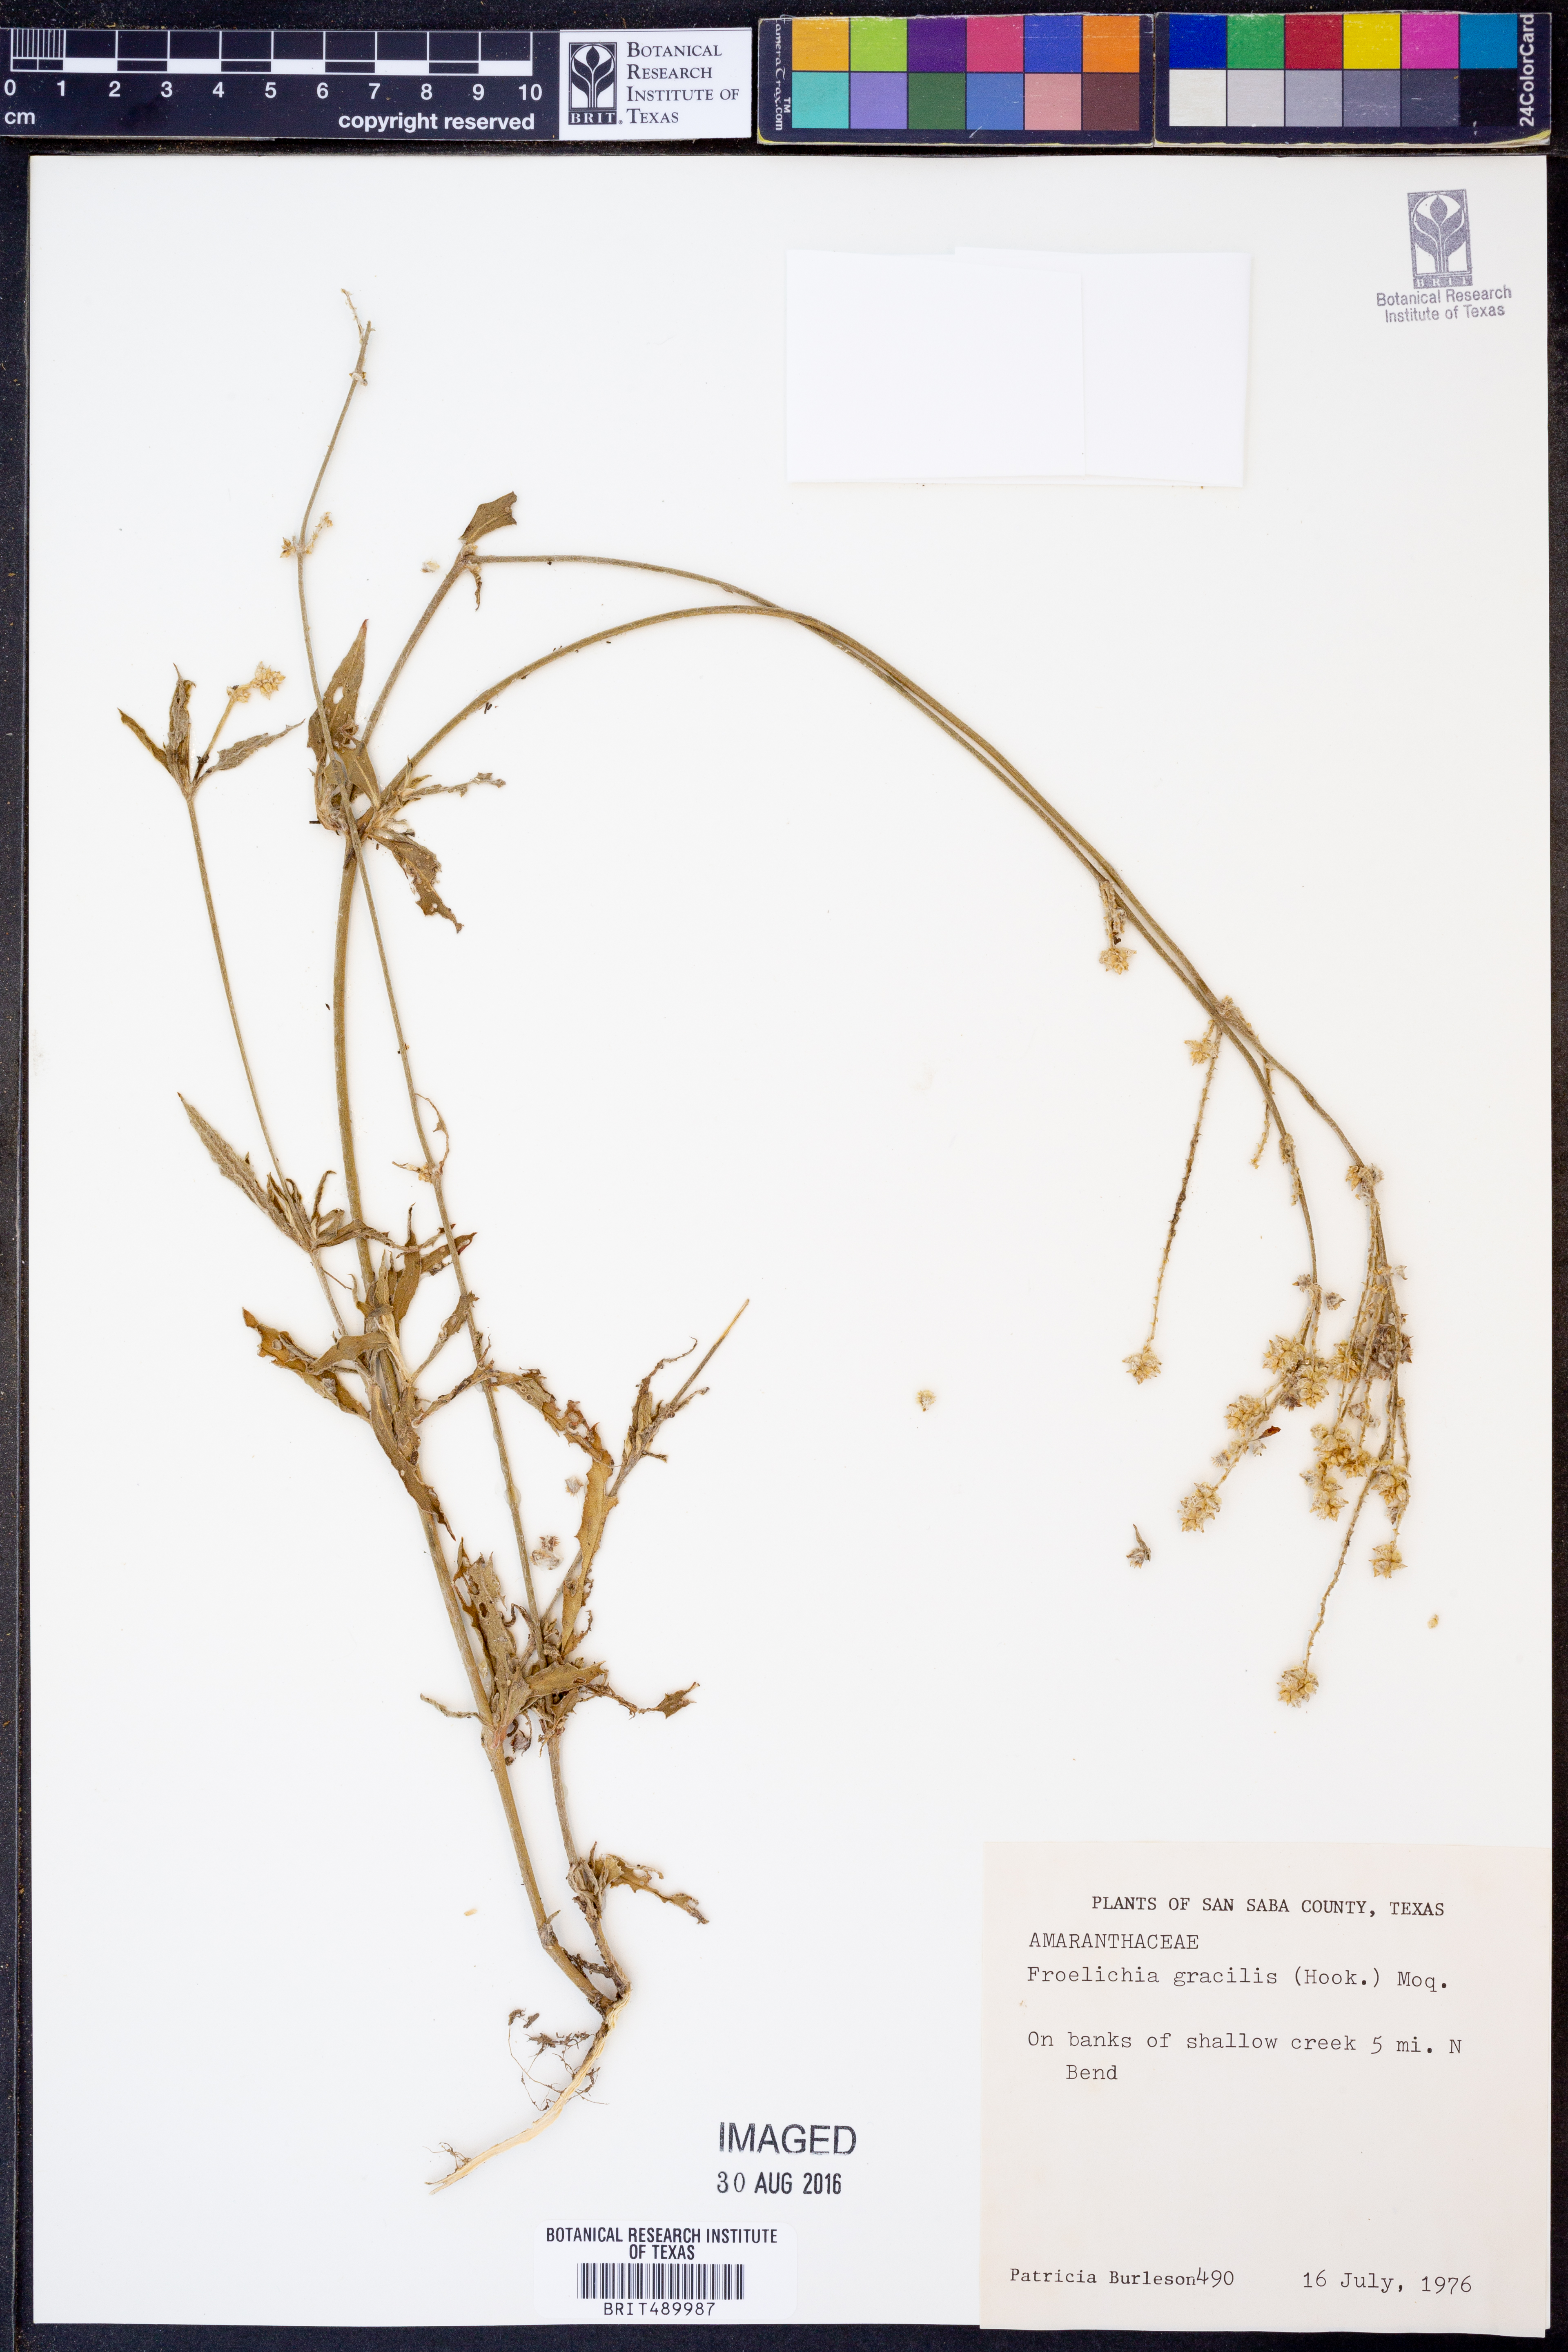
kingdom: Plantae
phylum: Tracheophyta
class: Magnoliopsida
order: Caryophyllales
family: Amaranthaceae
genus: Froelichia
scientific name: Froelichia gracilis
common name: Slender cottonweed
